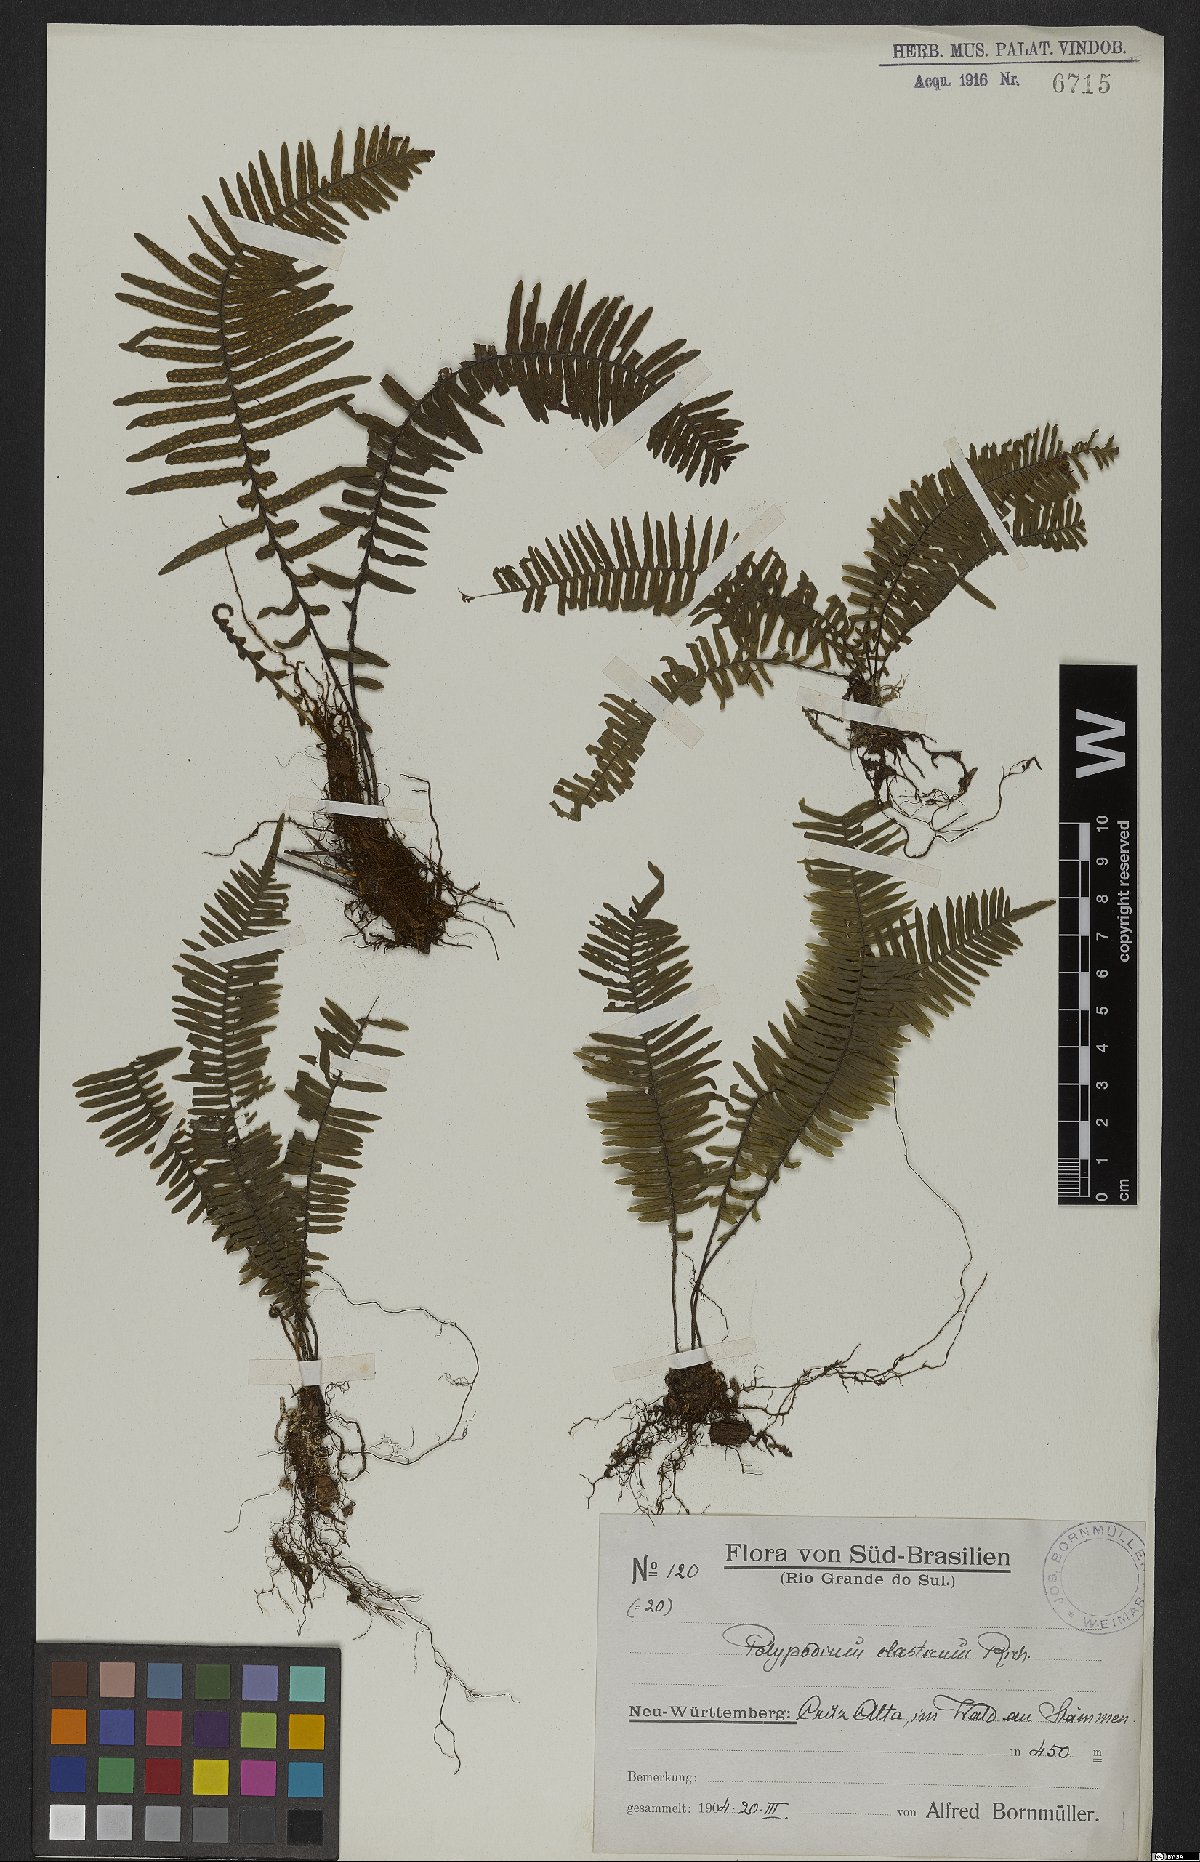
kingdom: Plantae
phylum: Tracheophyta
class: Polypodiopsida
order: Polypodiales
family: Polypodiaceae
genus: Pecluma
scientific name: Pecluma plumula
